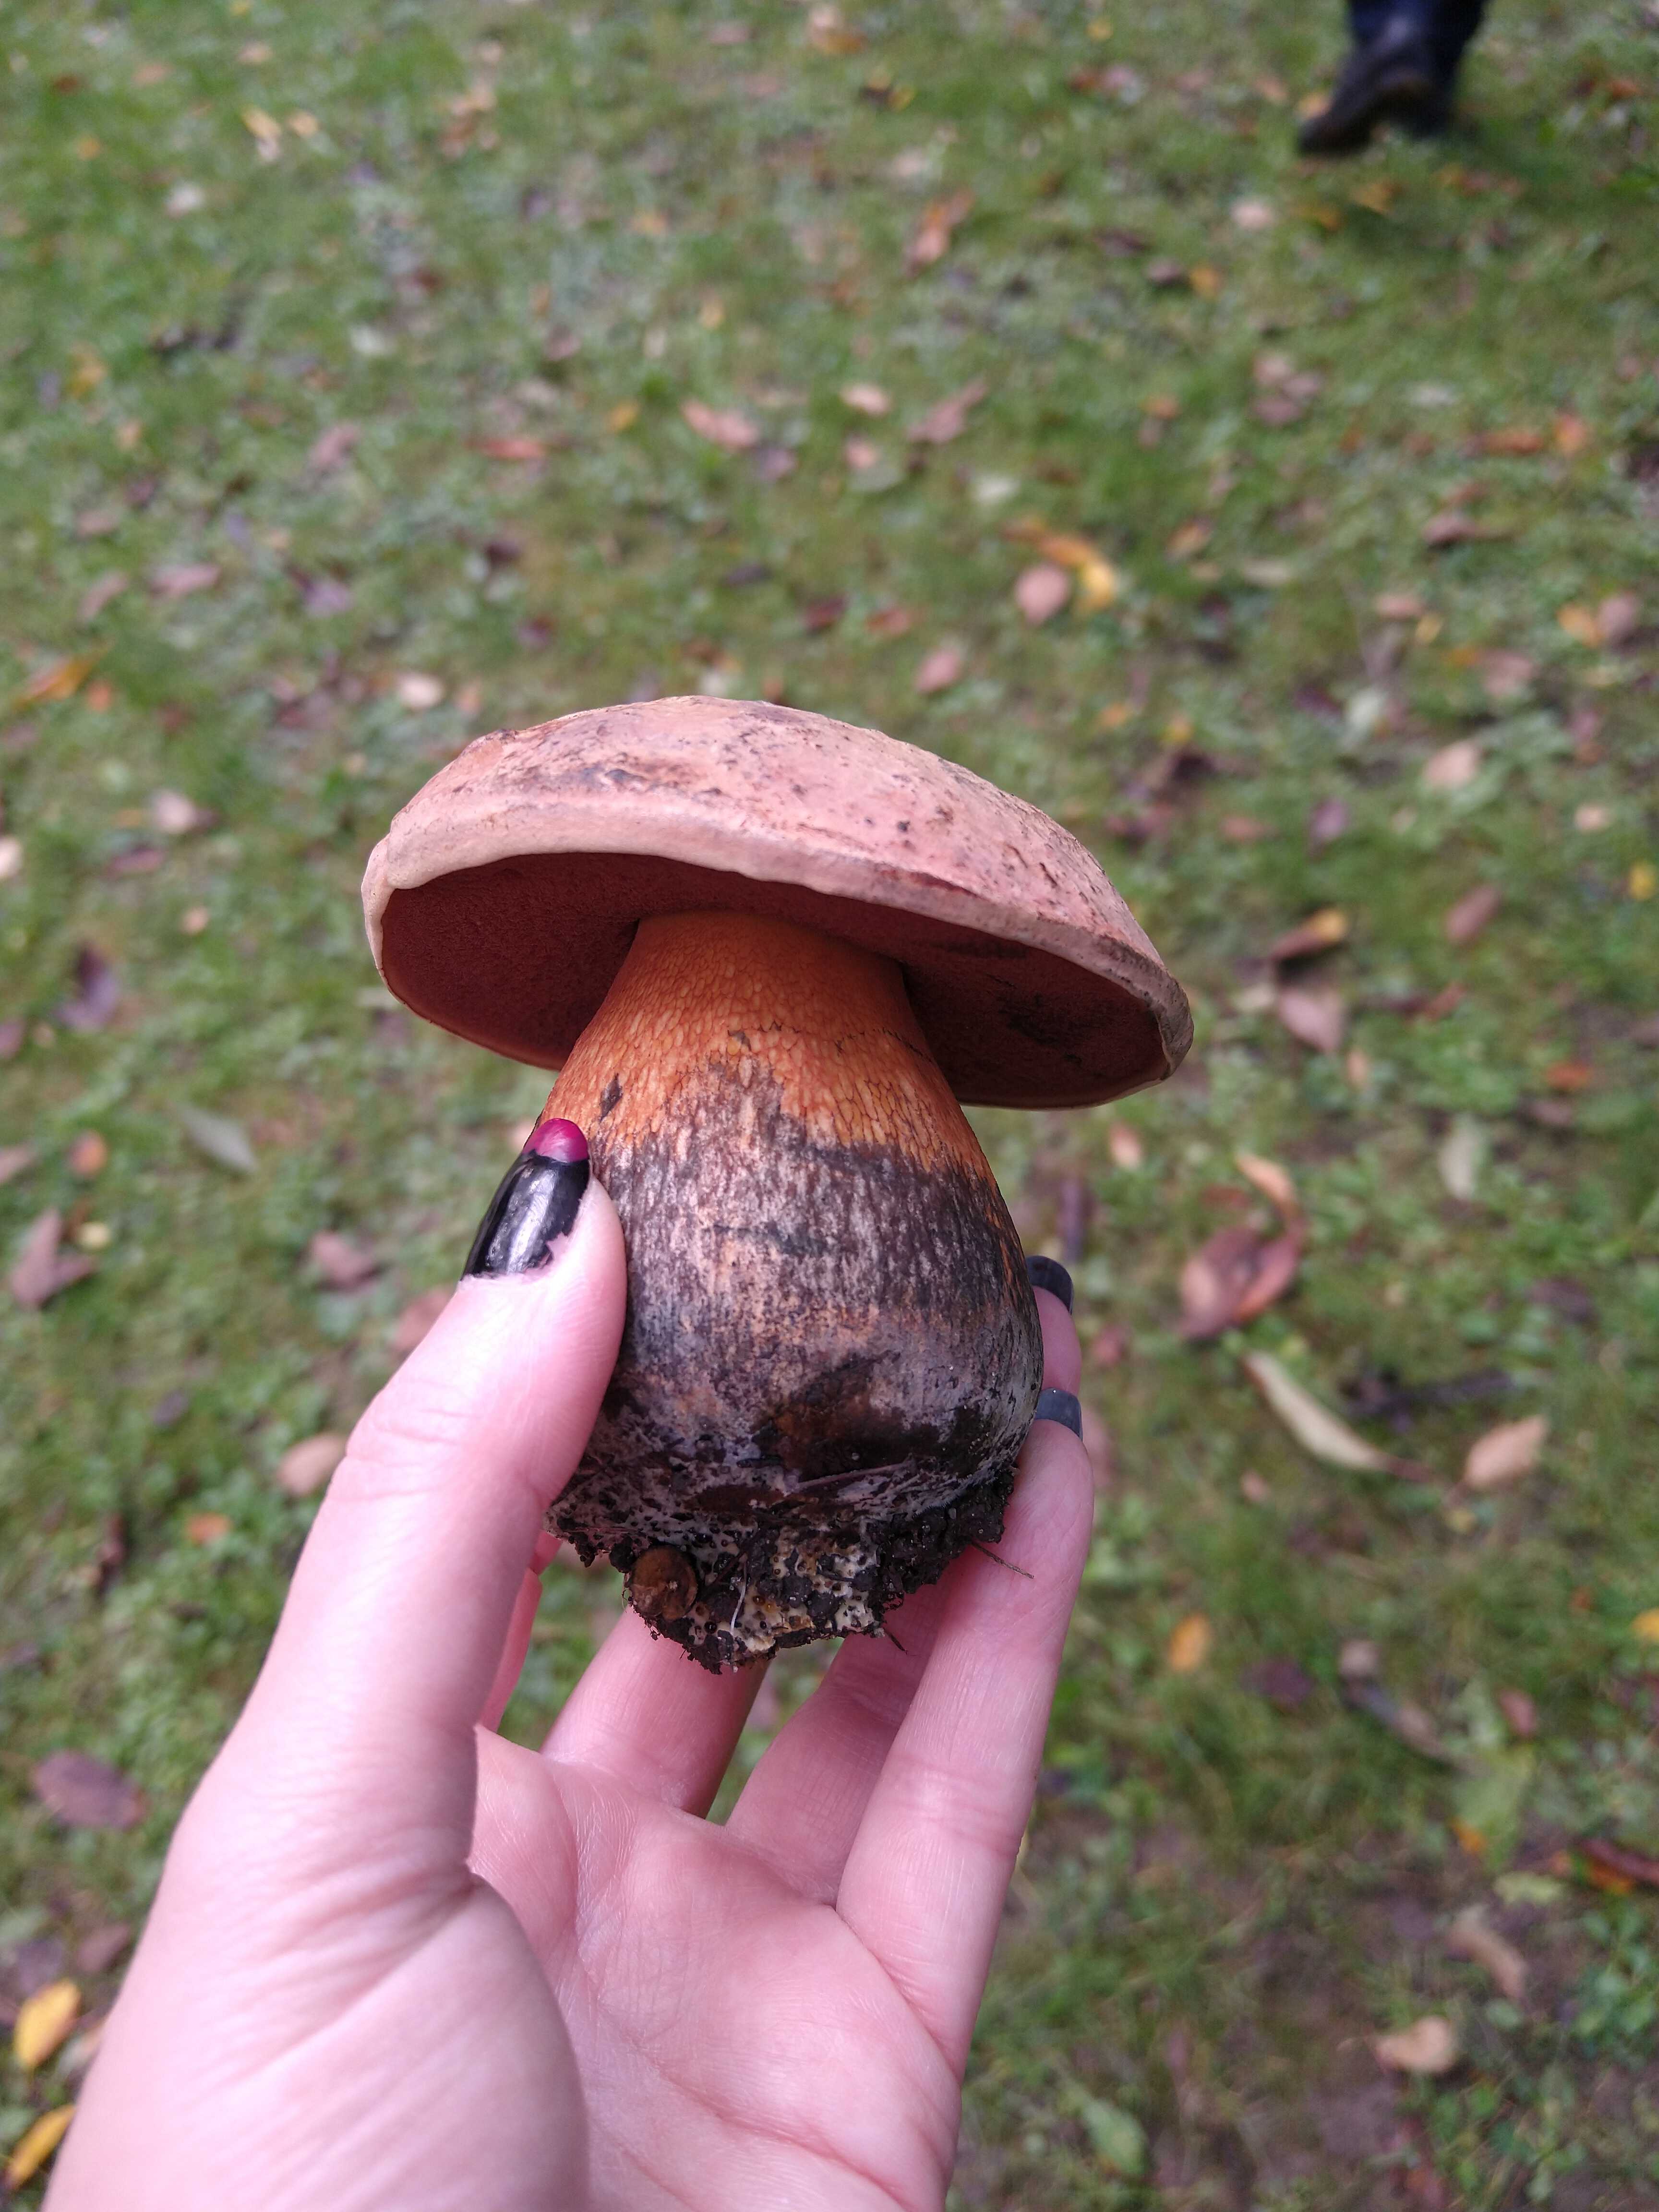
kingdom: Fungi
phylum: Basidiomycota
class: Agaricomycetes
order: Boletales
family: Boletaceae
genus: Suillellus
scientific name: Suillellus luridus
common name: netstokket indigorørhat
